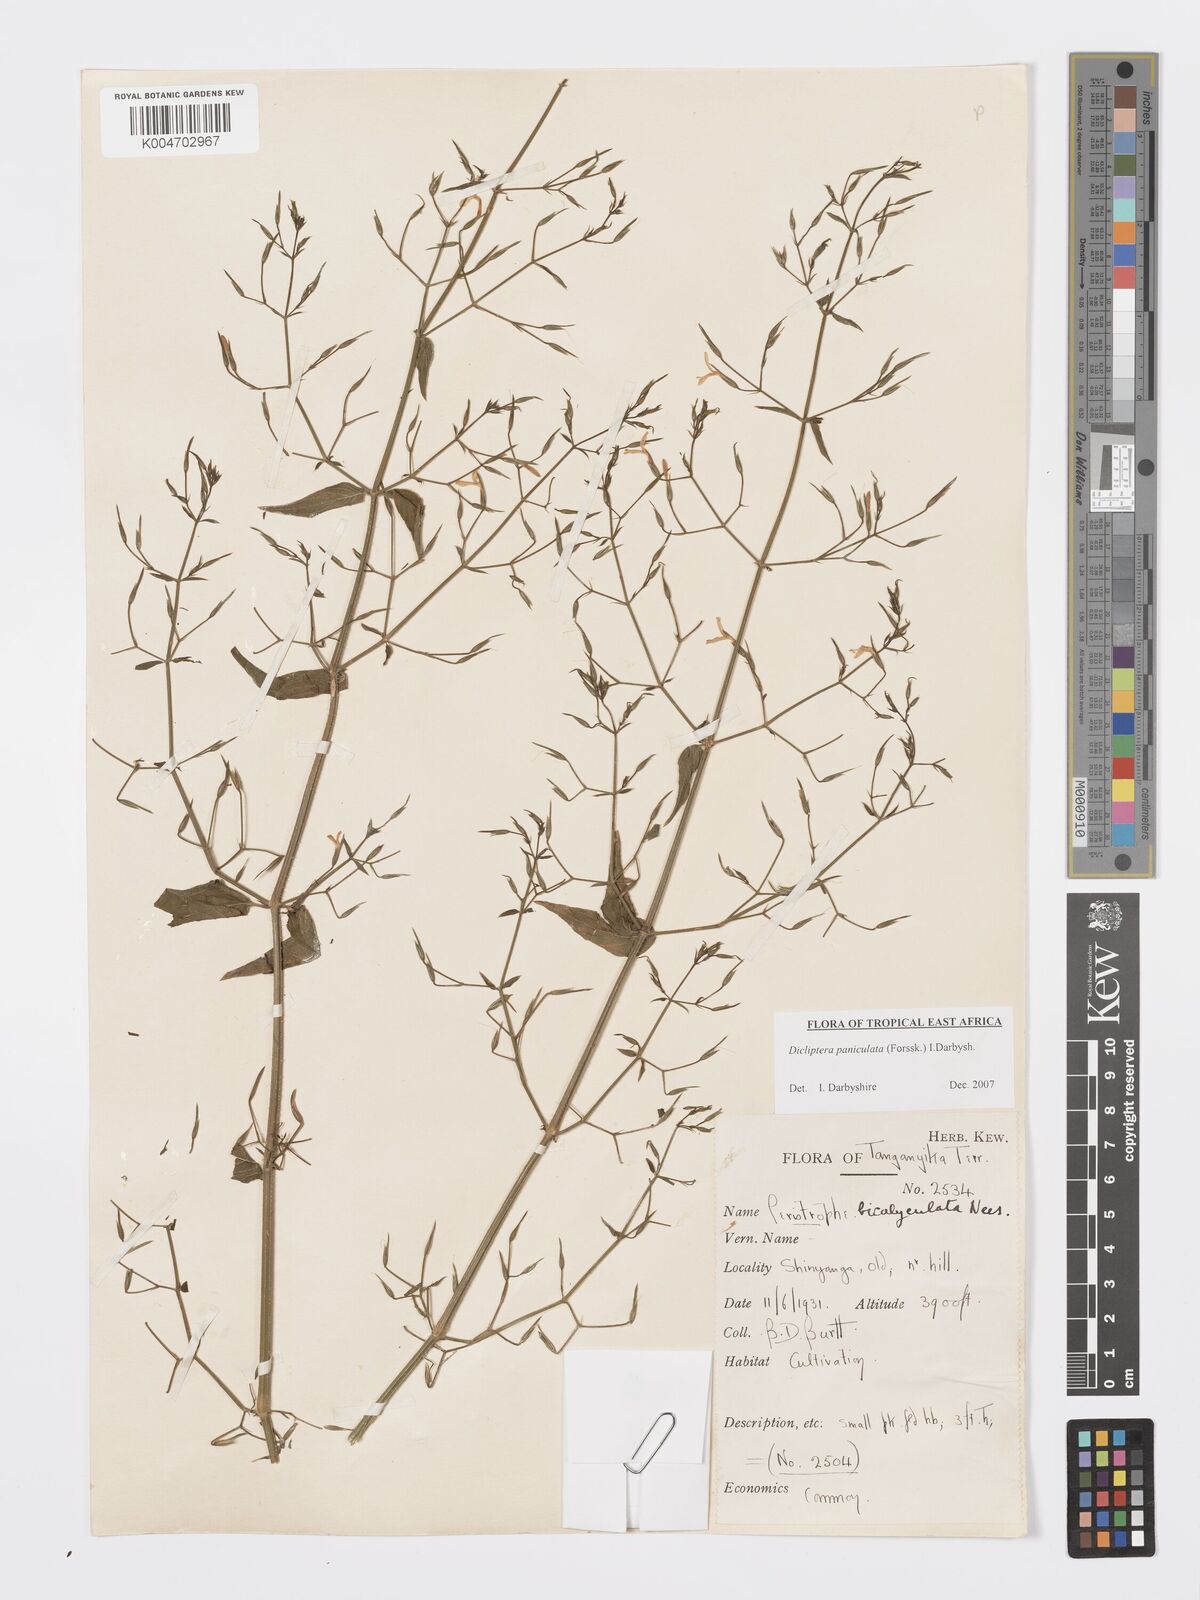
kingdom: Plantae
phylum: Tracheophyta
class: Magnoliopsida
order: Lamiales
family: Acanthaceae
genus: Dicliptera
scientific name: Dicliptera paniculata
